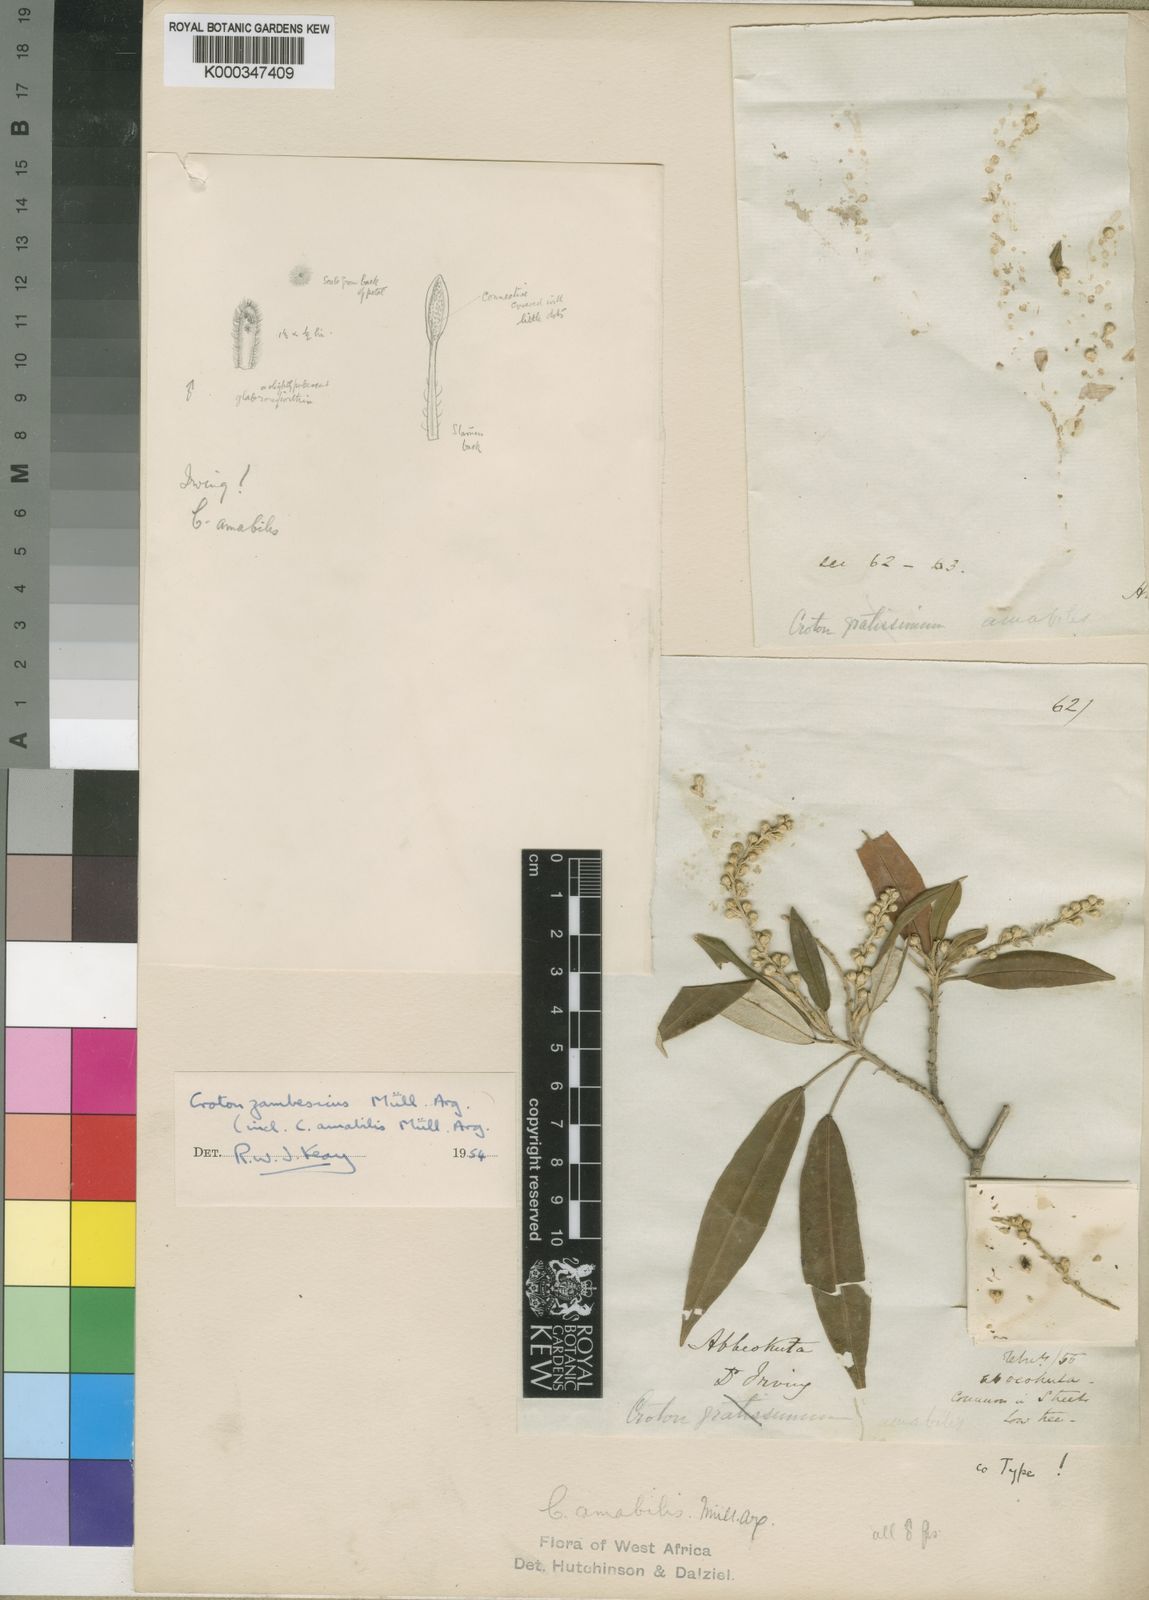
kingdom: Plantae
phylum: Tracheophyta
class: Magnoliopsida
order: Malpighiales
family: Euphorbiaceae
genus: Croton
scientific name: Croton
